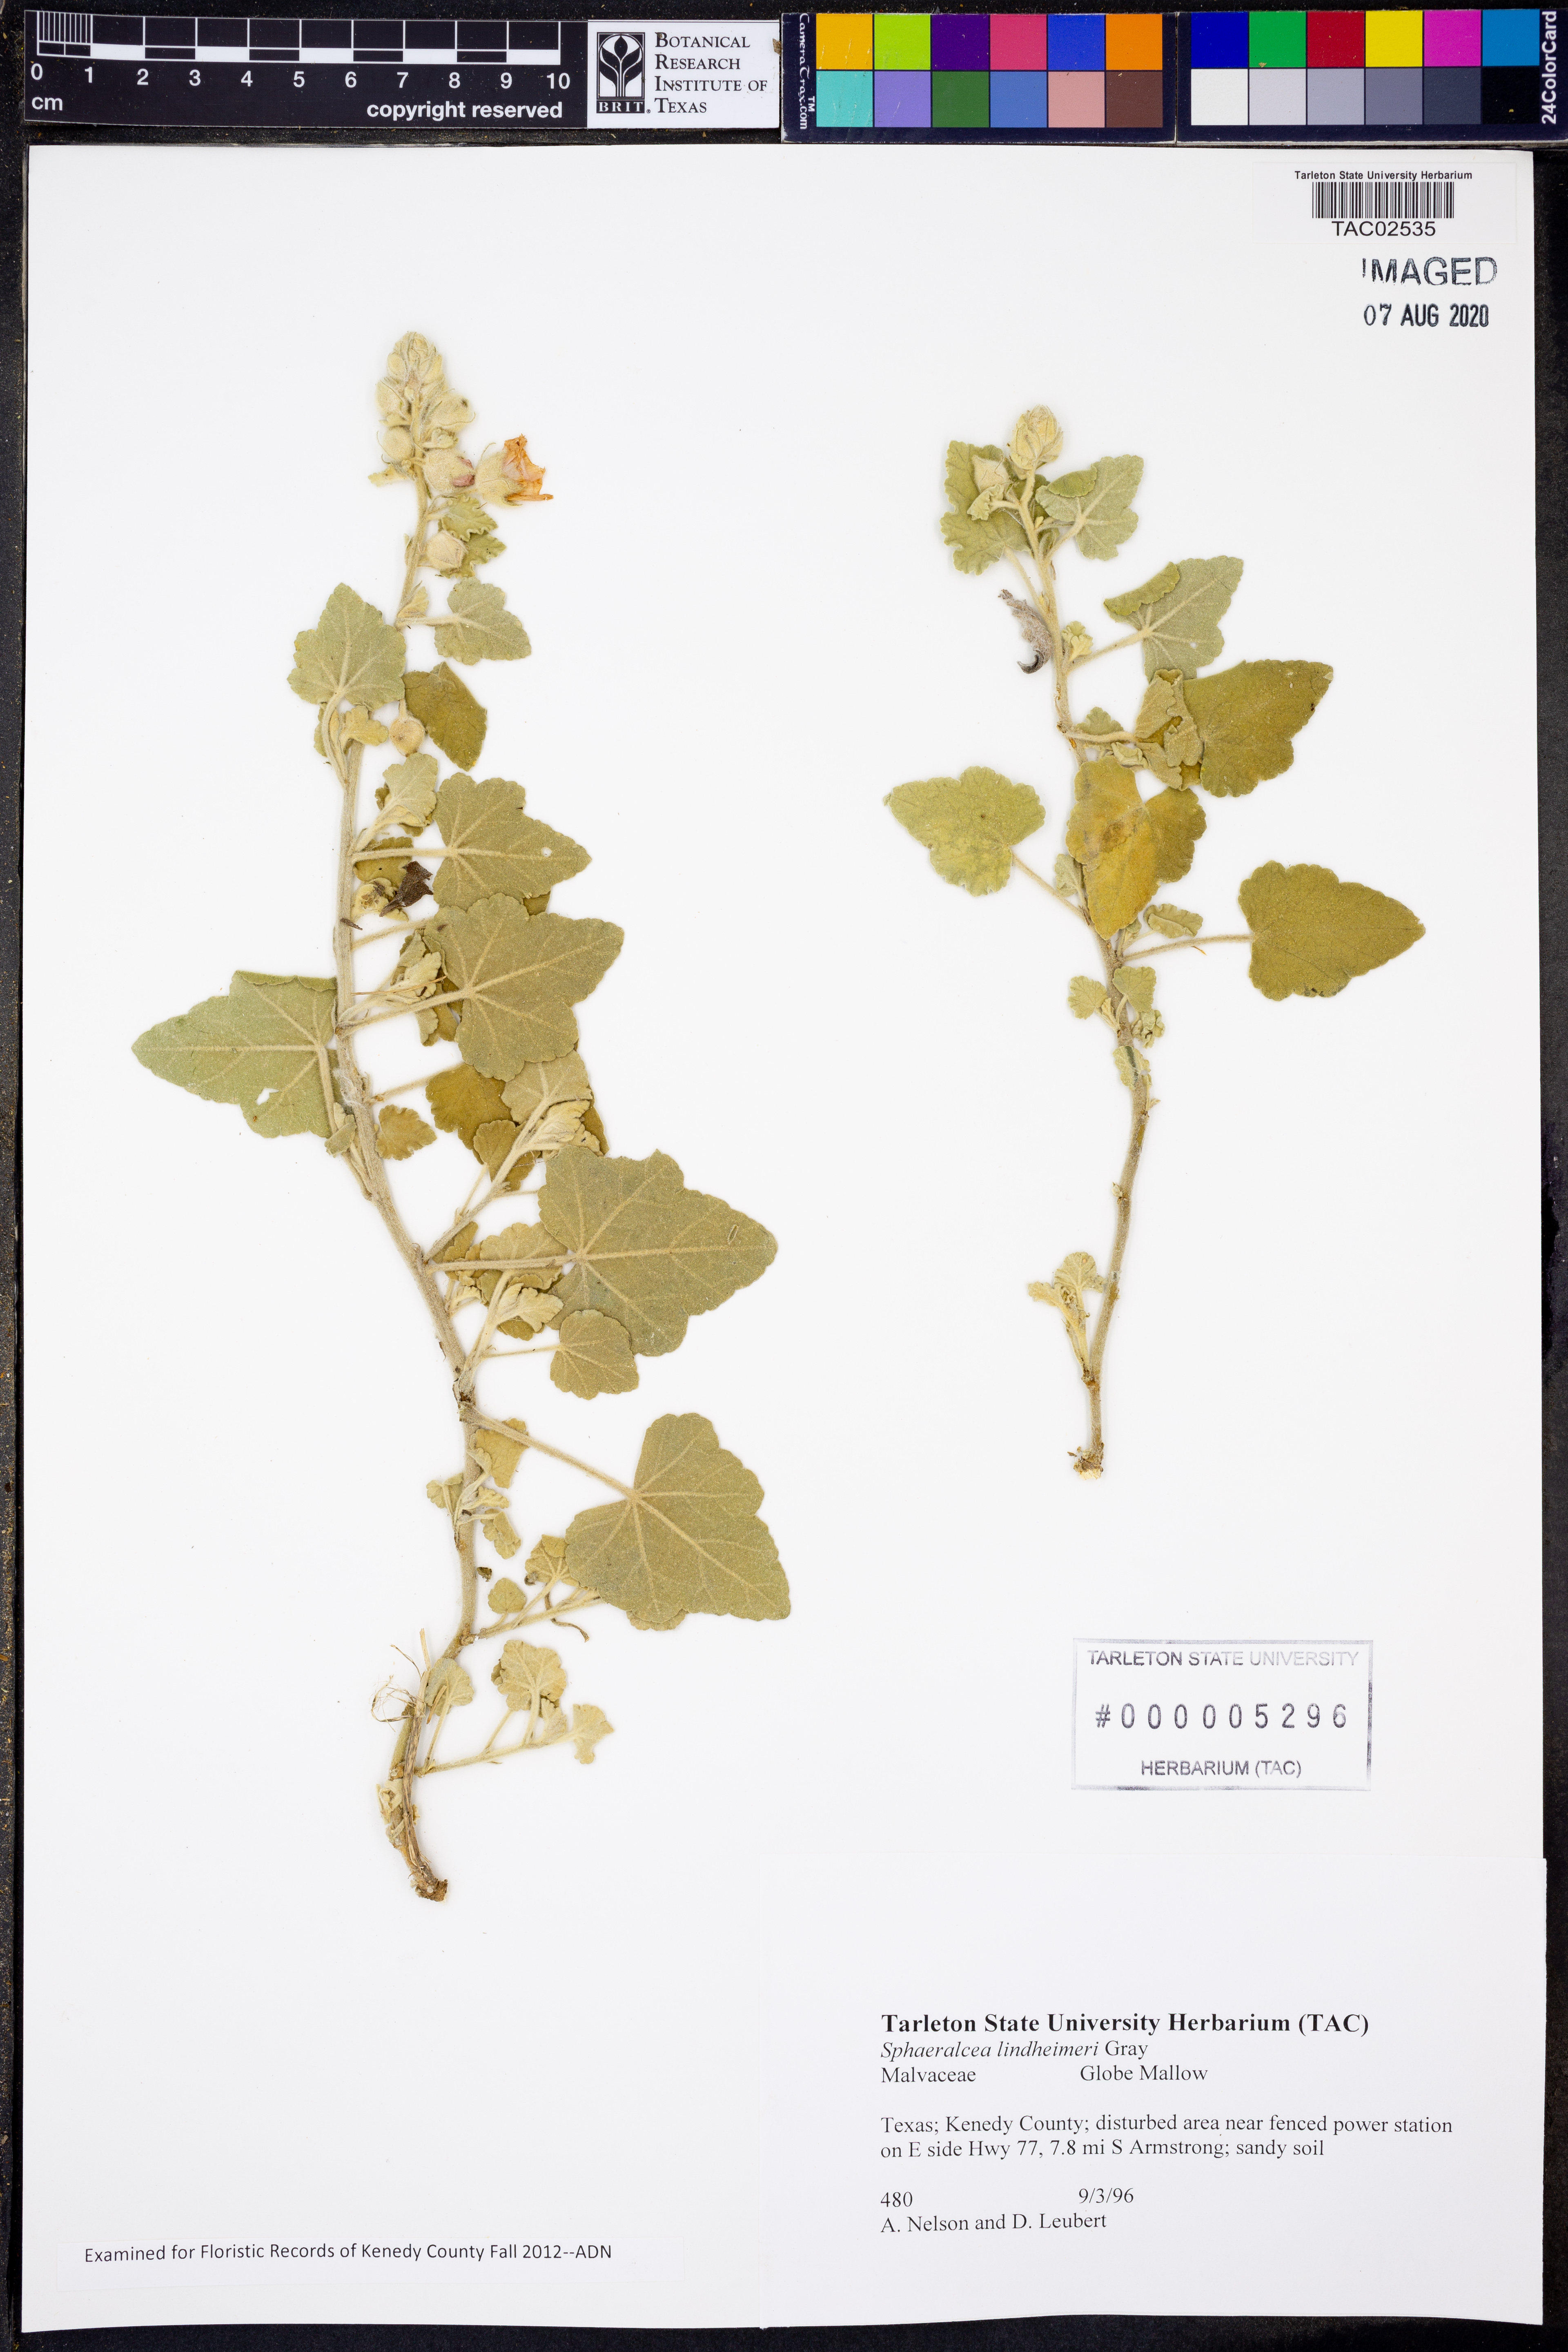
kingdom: Plantae
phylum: Tracheophyta
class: Magnoliopsida
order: Malvales
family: Malvaceae
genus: Sphaeralcea
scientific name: Sphaeralcea lindheimeri
